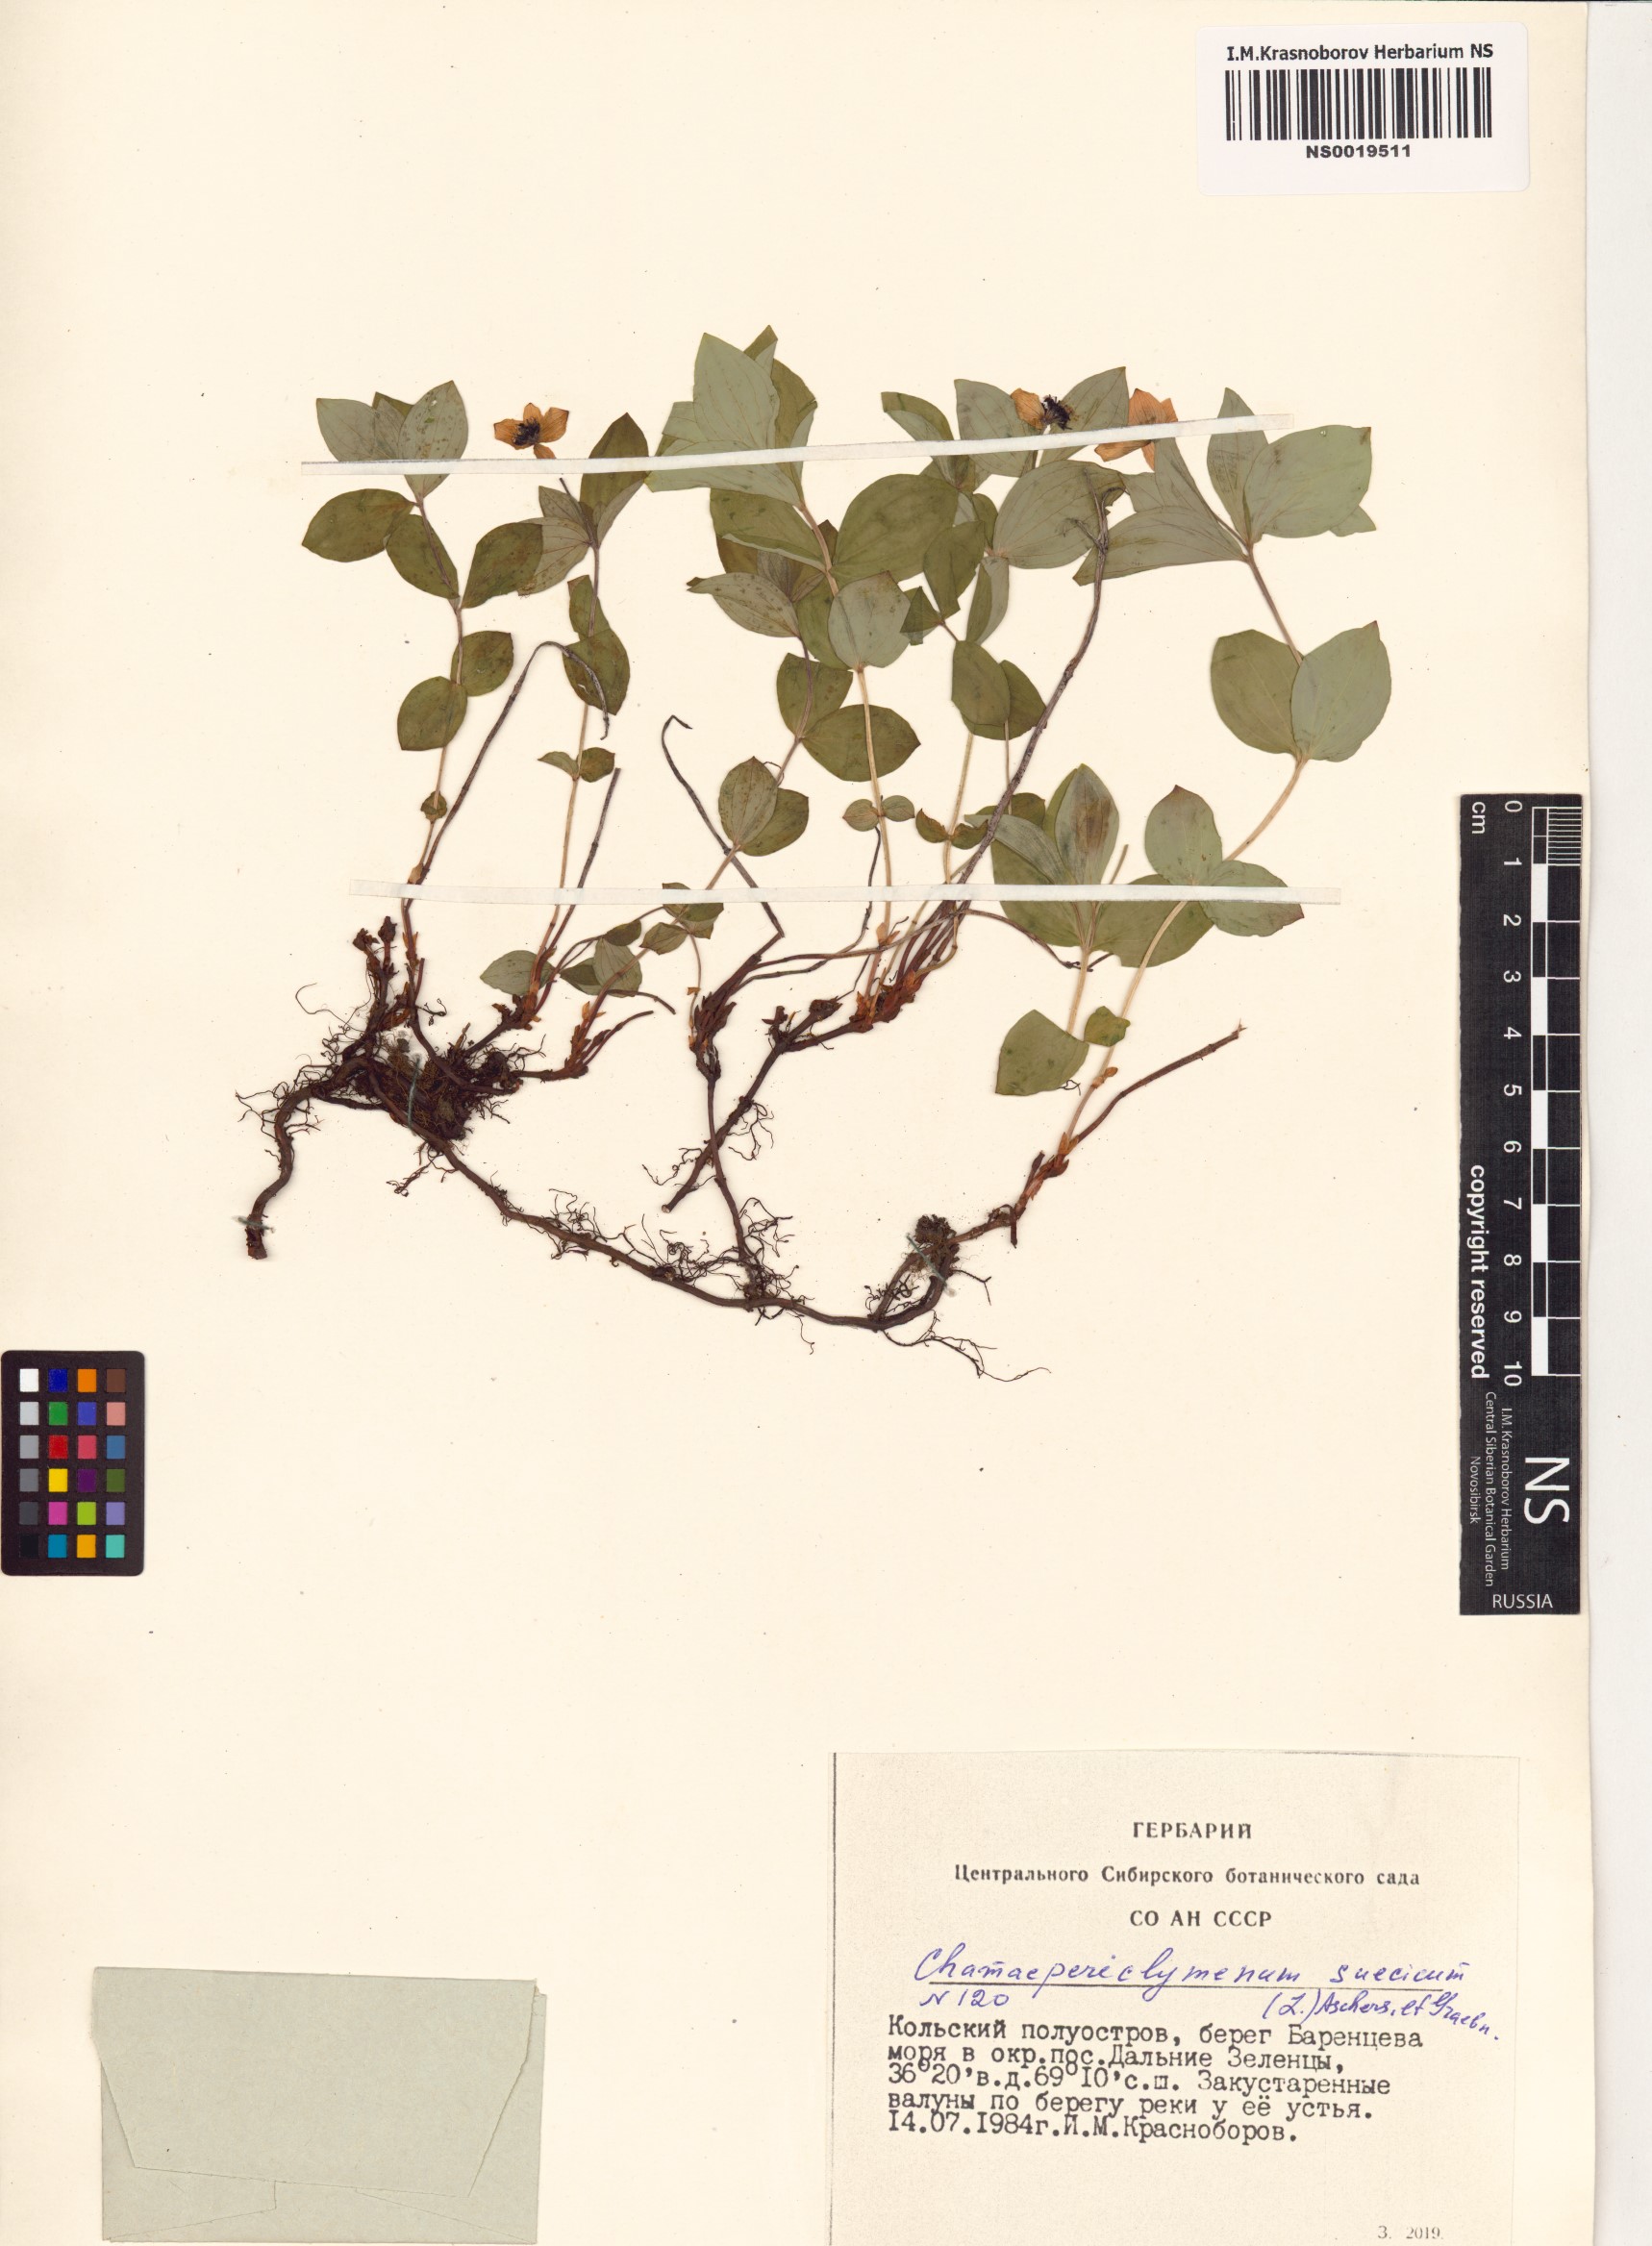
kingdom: Plantae
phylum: Tracheophyta
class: Magnoliopsida
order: Cornales
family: Cornaceae
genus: Cornus
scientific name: Cornus suecica
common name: Dwarf cornel
